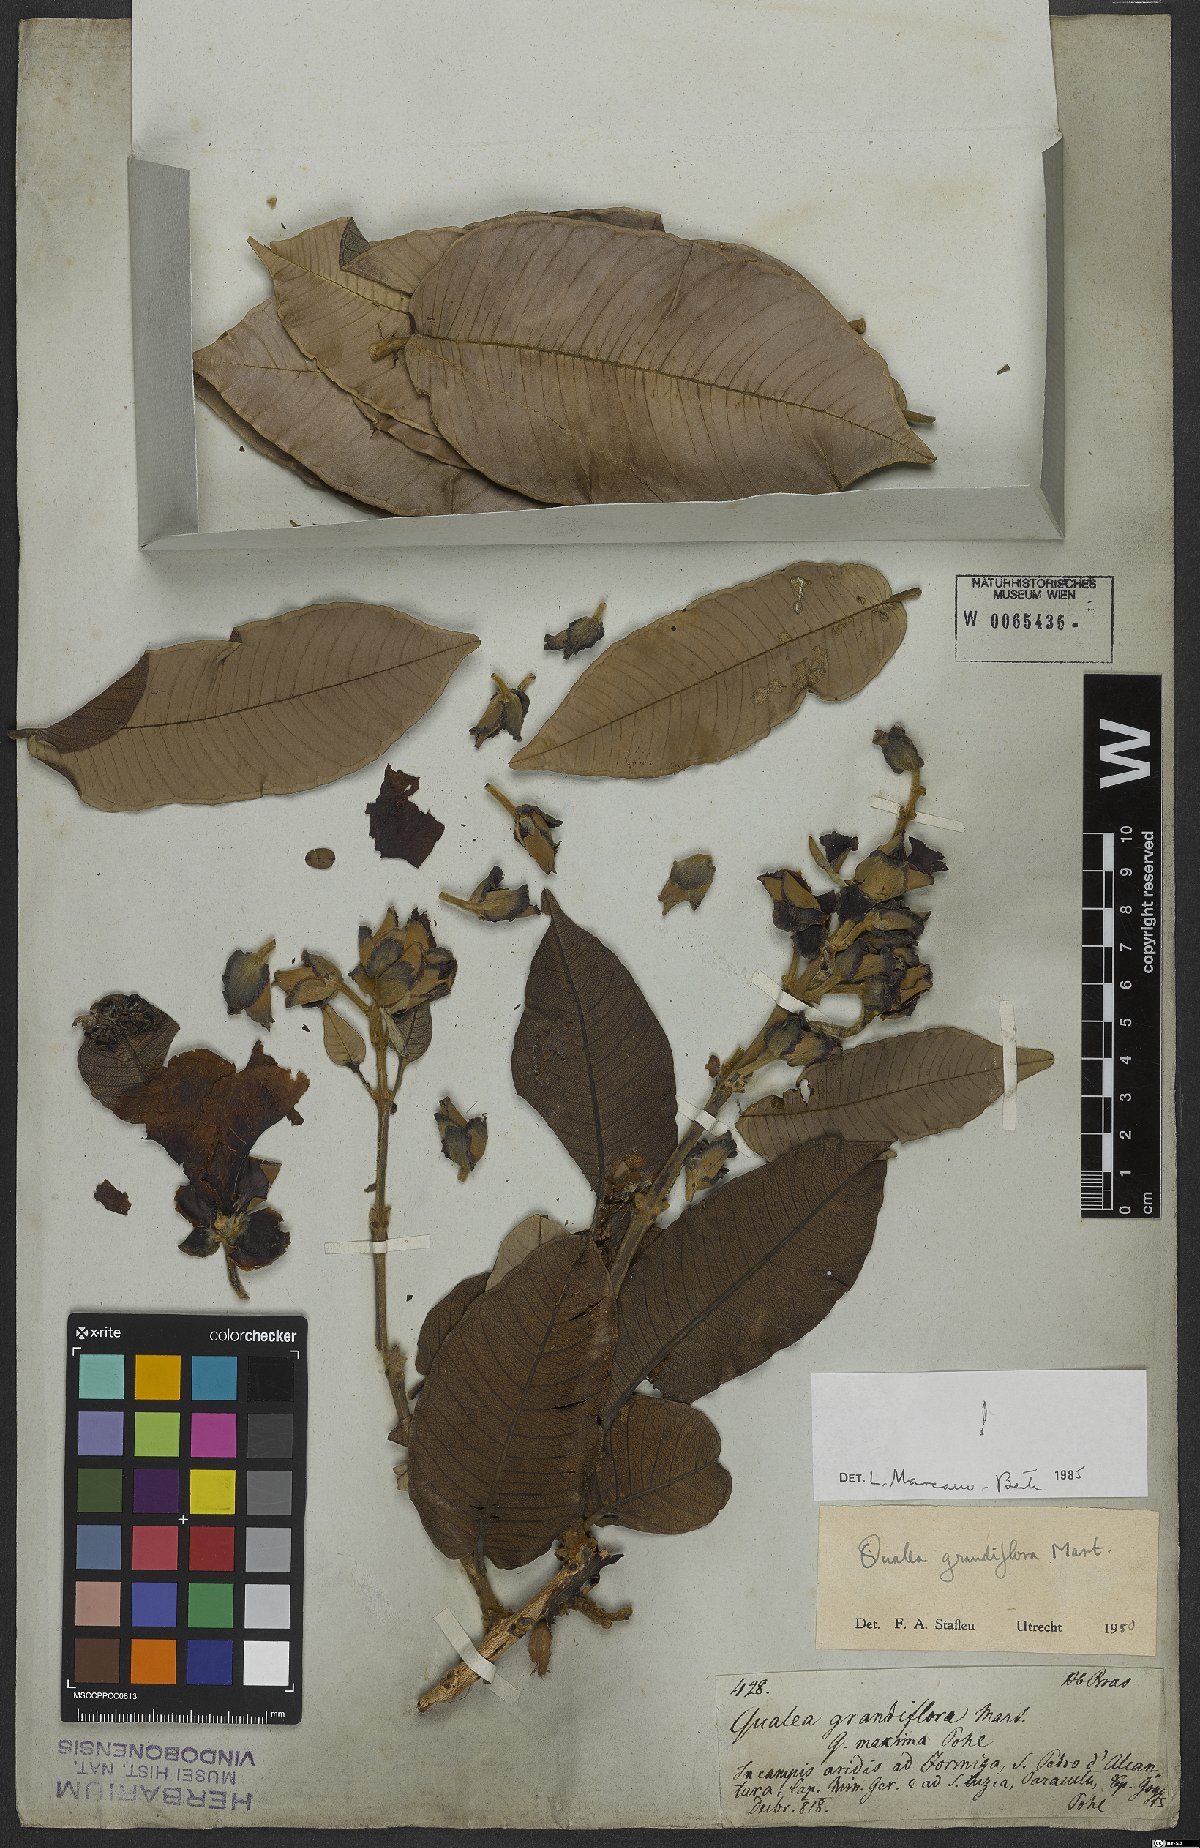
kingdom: Plantae
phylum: Tracheophyta
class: Magnoliopsida
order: Myrtales
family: Vochysiaceae
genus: Qualea
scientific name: Qualea grandiflora
